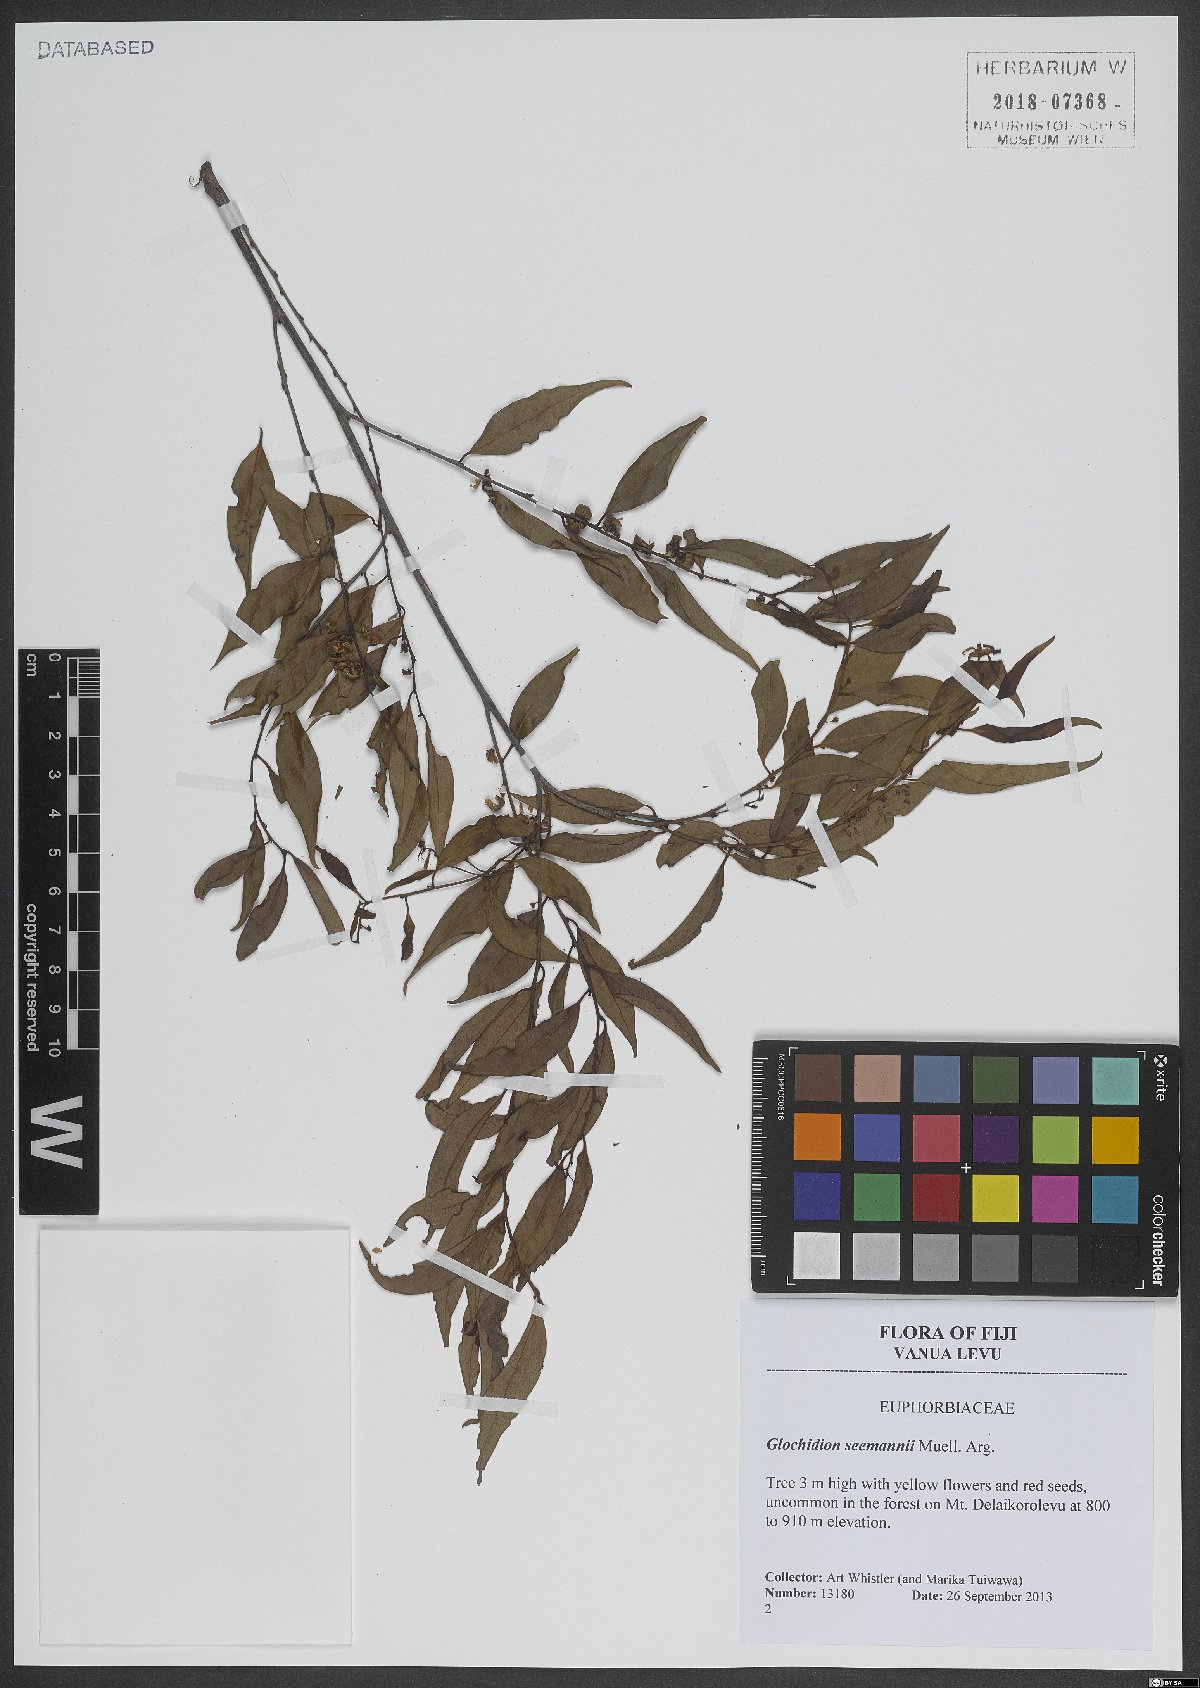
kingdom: Plantae
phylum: Tracheophyta
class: Magnoliopsida
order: Malpighiales
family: Phyllanthaceae
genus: Glochidion
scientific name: Glochidion seemannii
